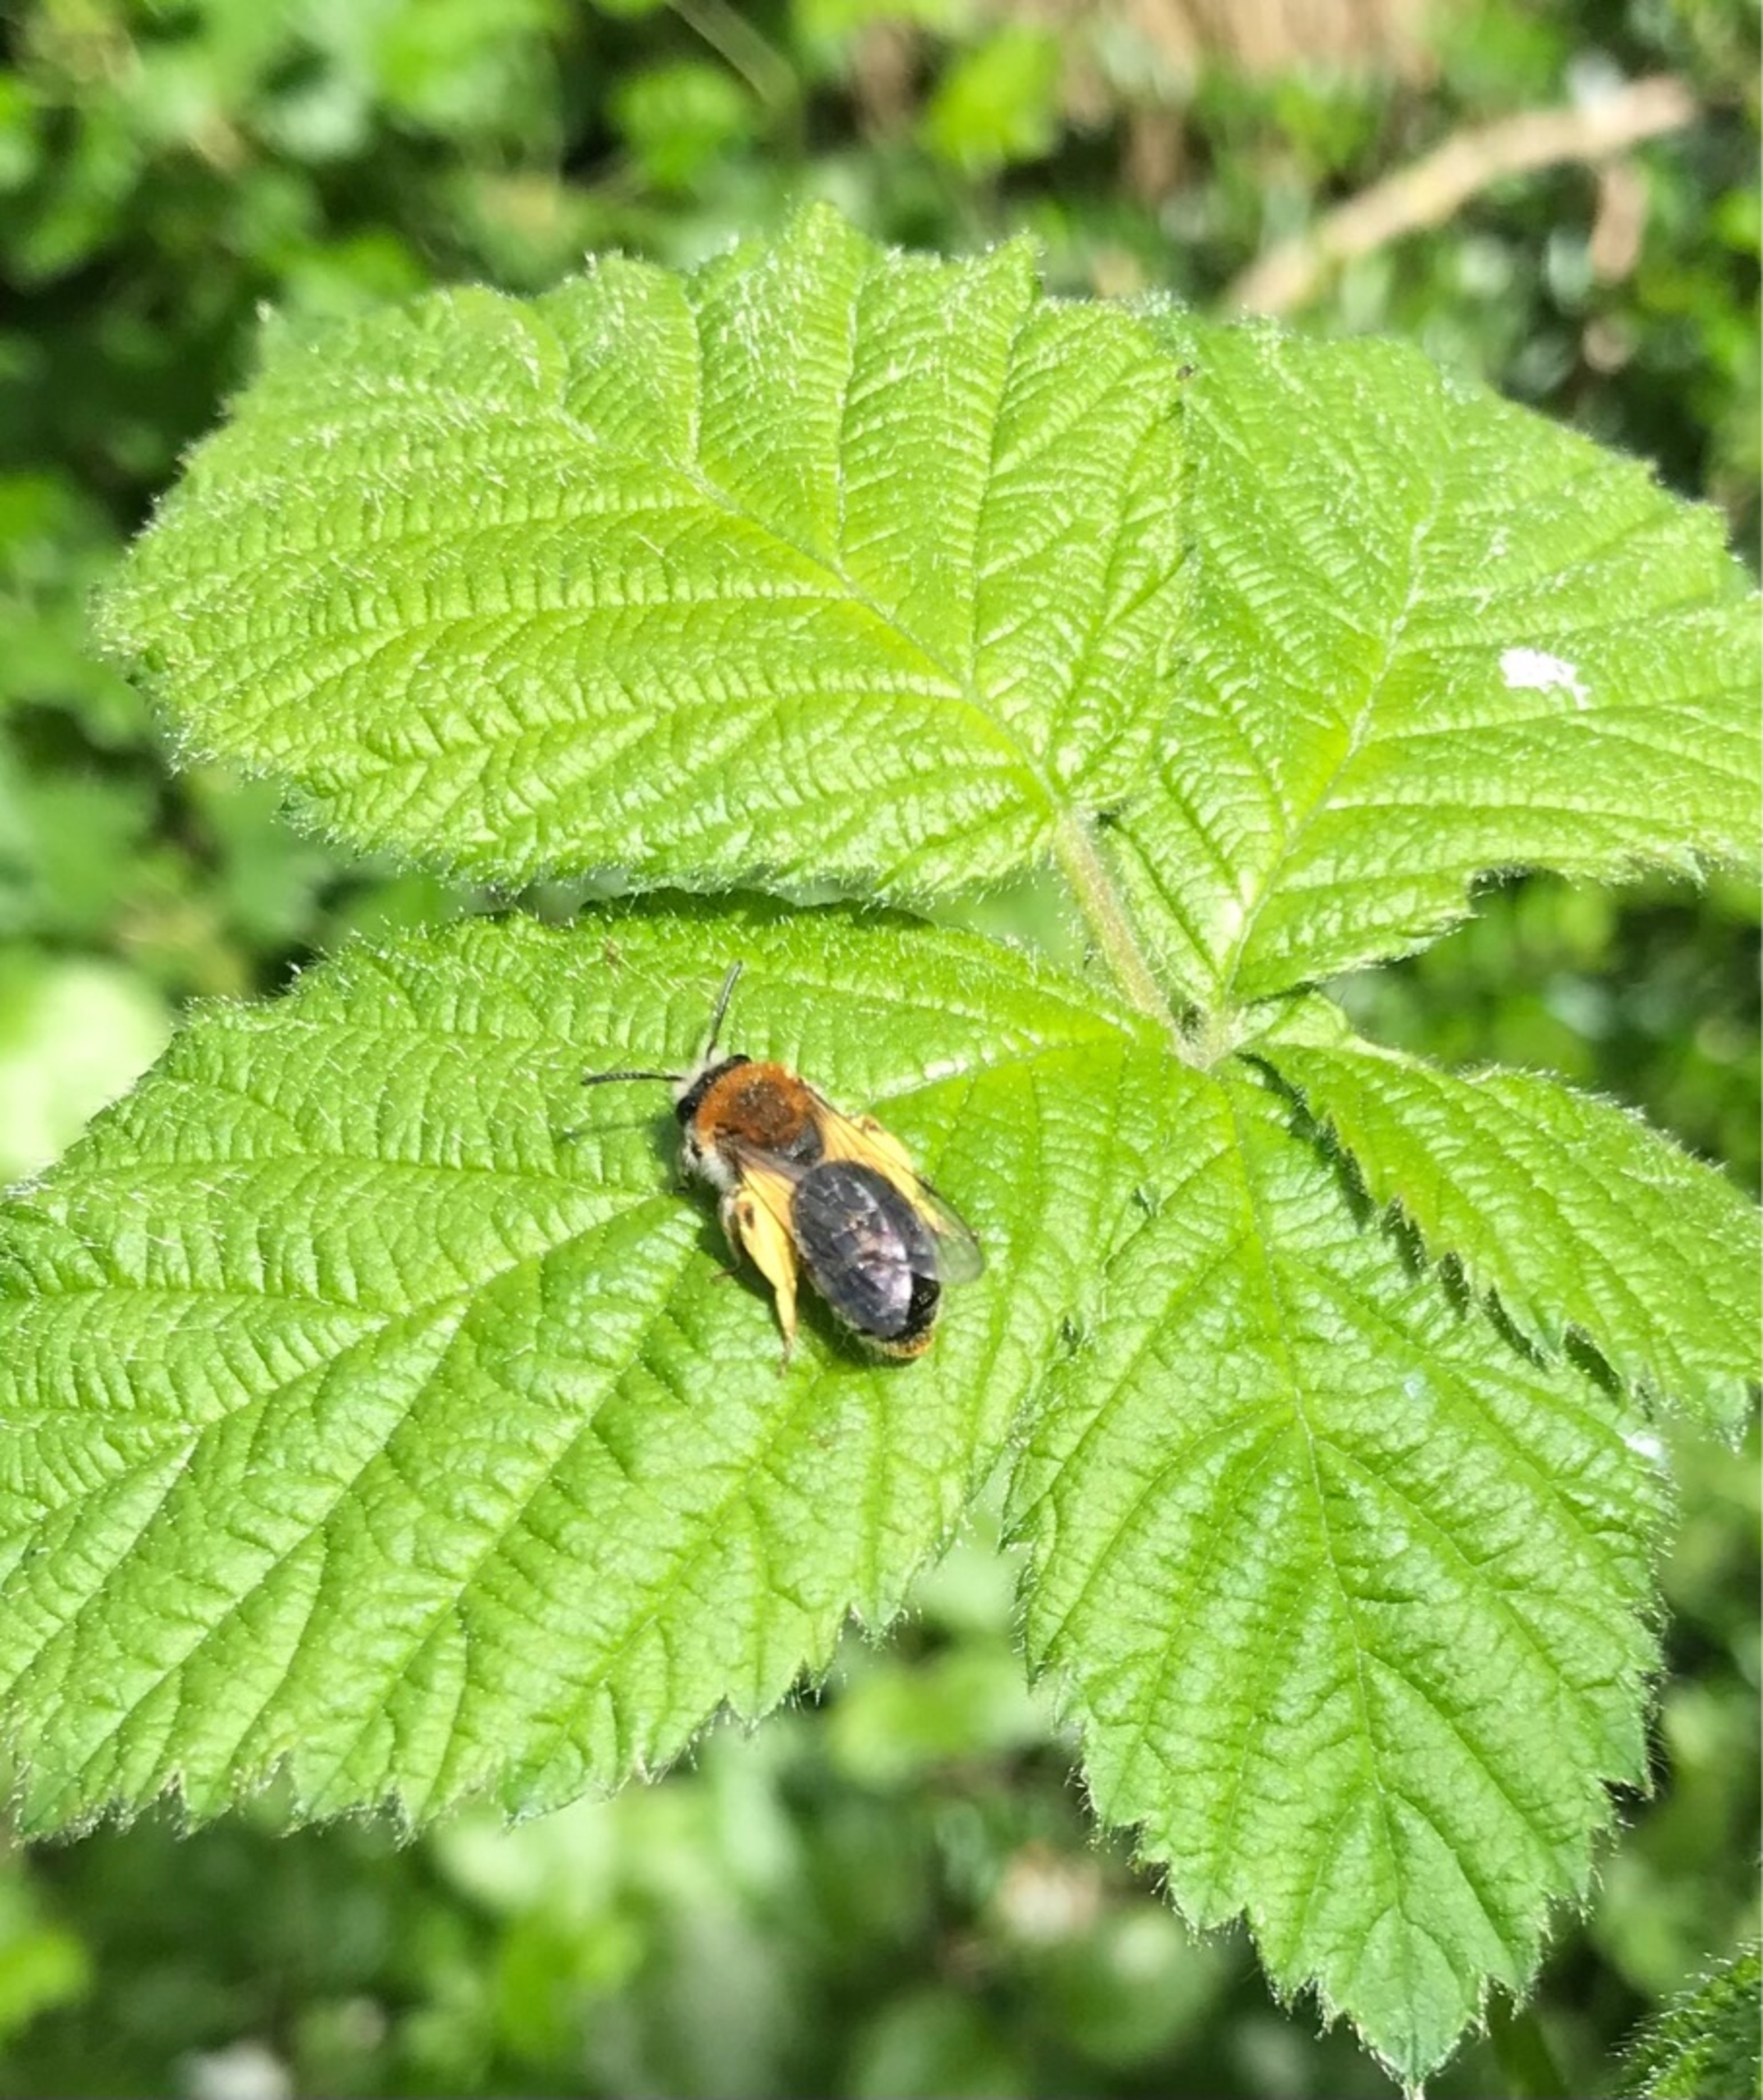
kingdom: Animalia
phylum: Arthropoda
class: Insecta
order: Hymenoptera
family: Andrenidae
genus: Andrena
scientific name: Andrena haemorrhoa
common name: Havejordbi
